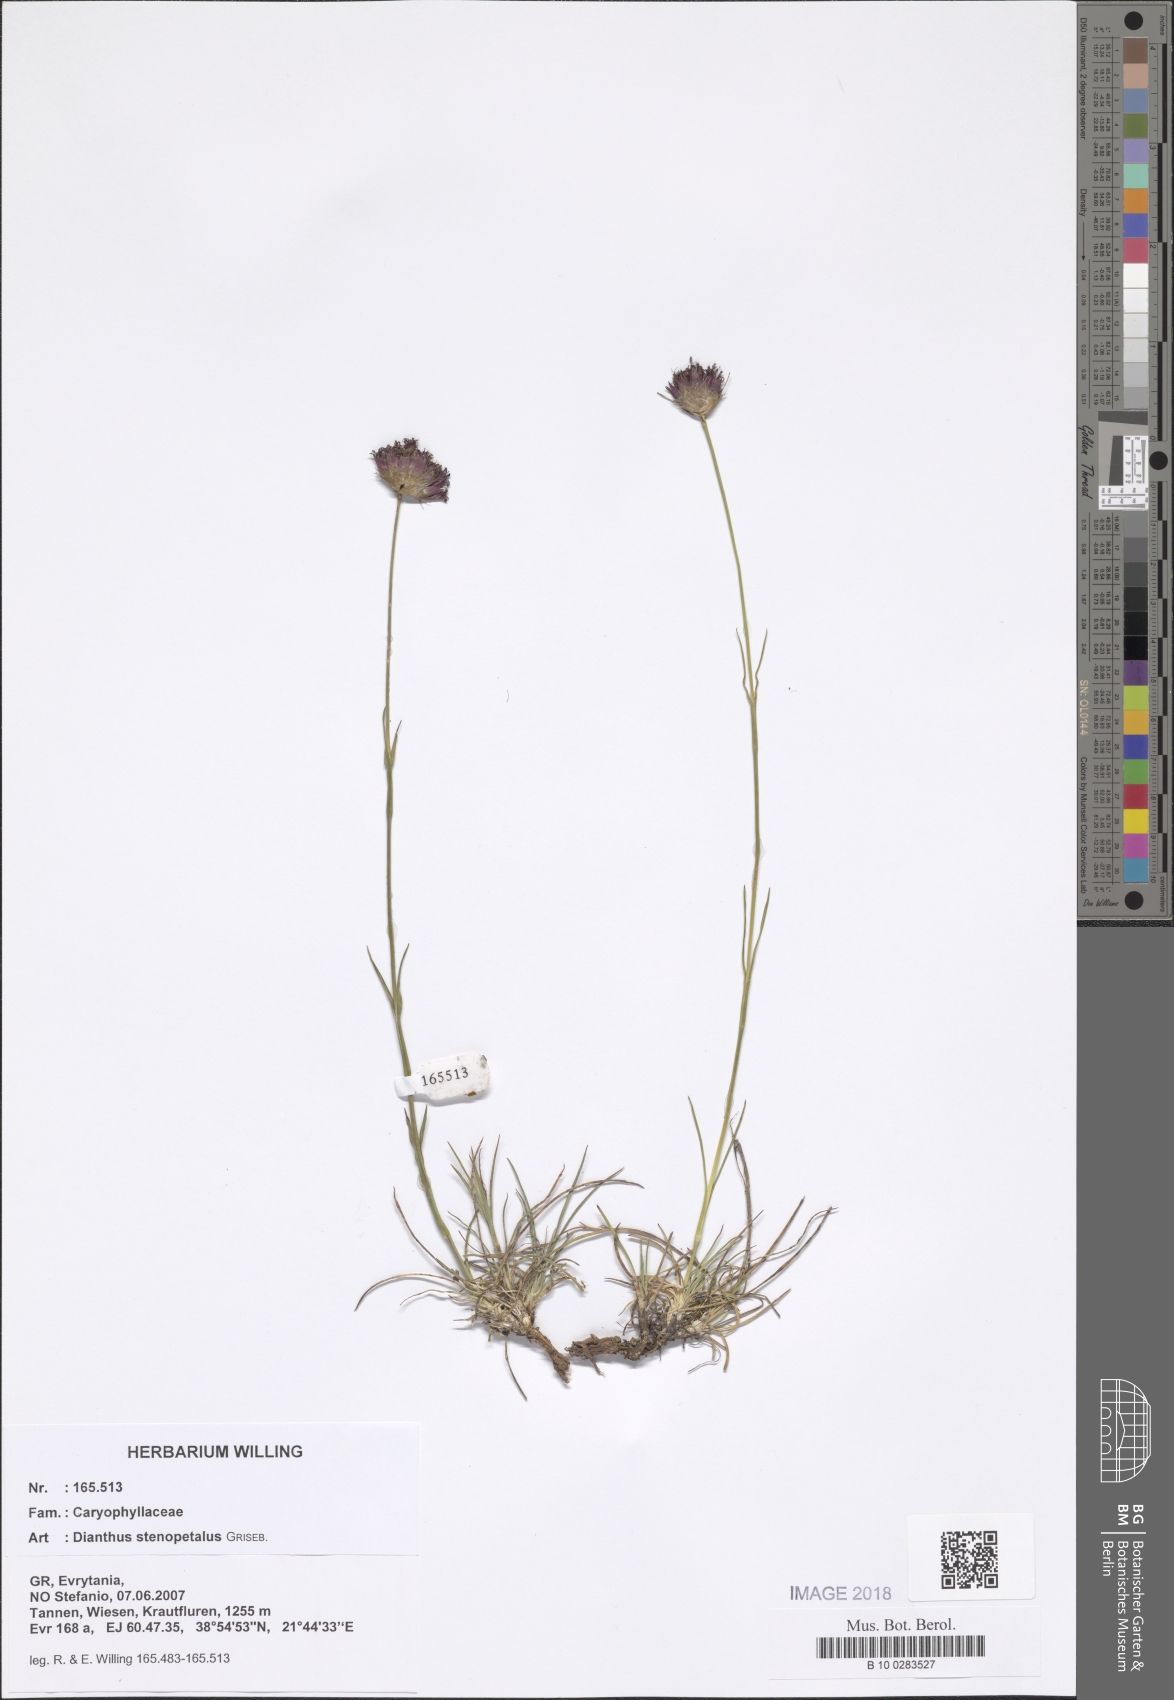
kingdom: Plantae
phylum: Tracheophyta
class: Magnoliopsida
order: Caryophyllales
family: Caryophyllaceae
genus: Dianthus
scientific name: Dianthus stenopetalus
